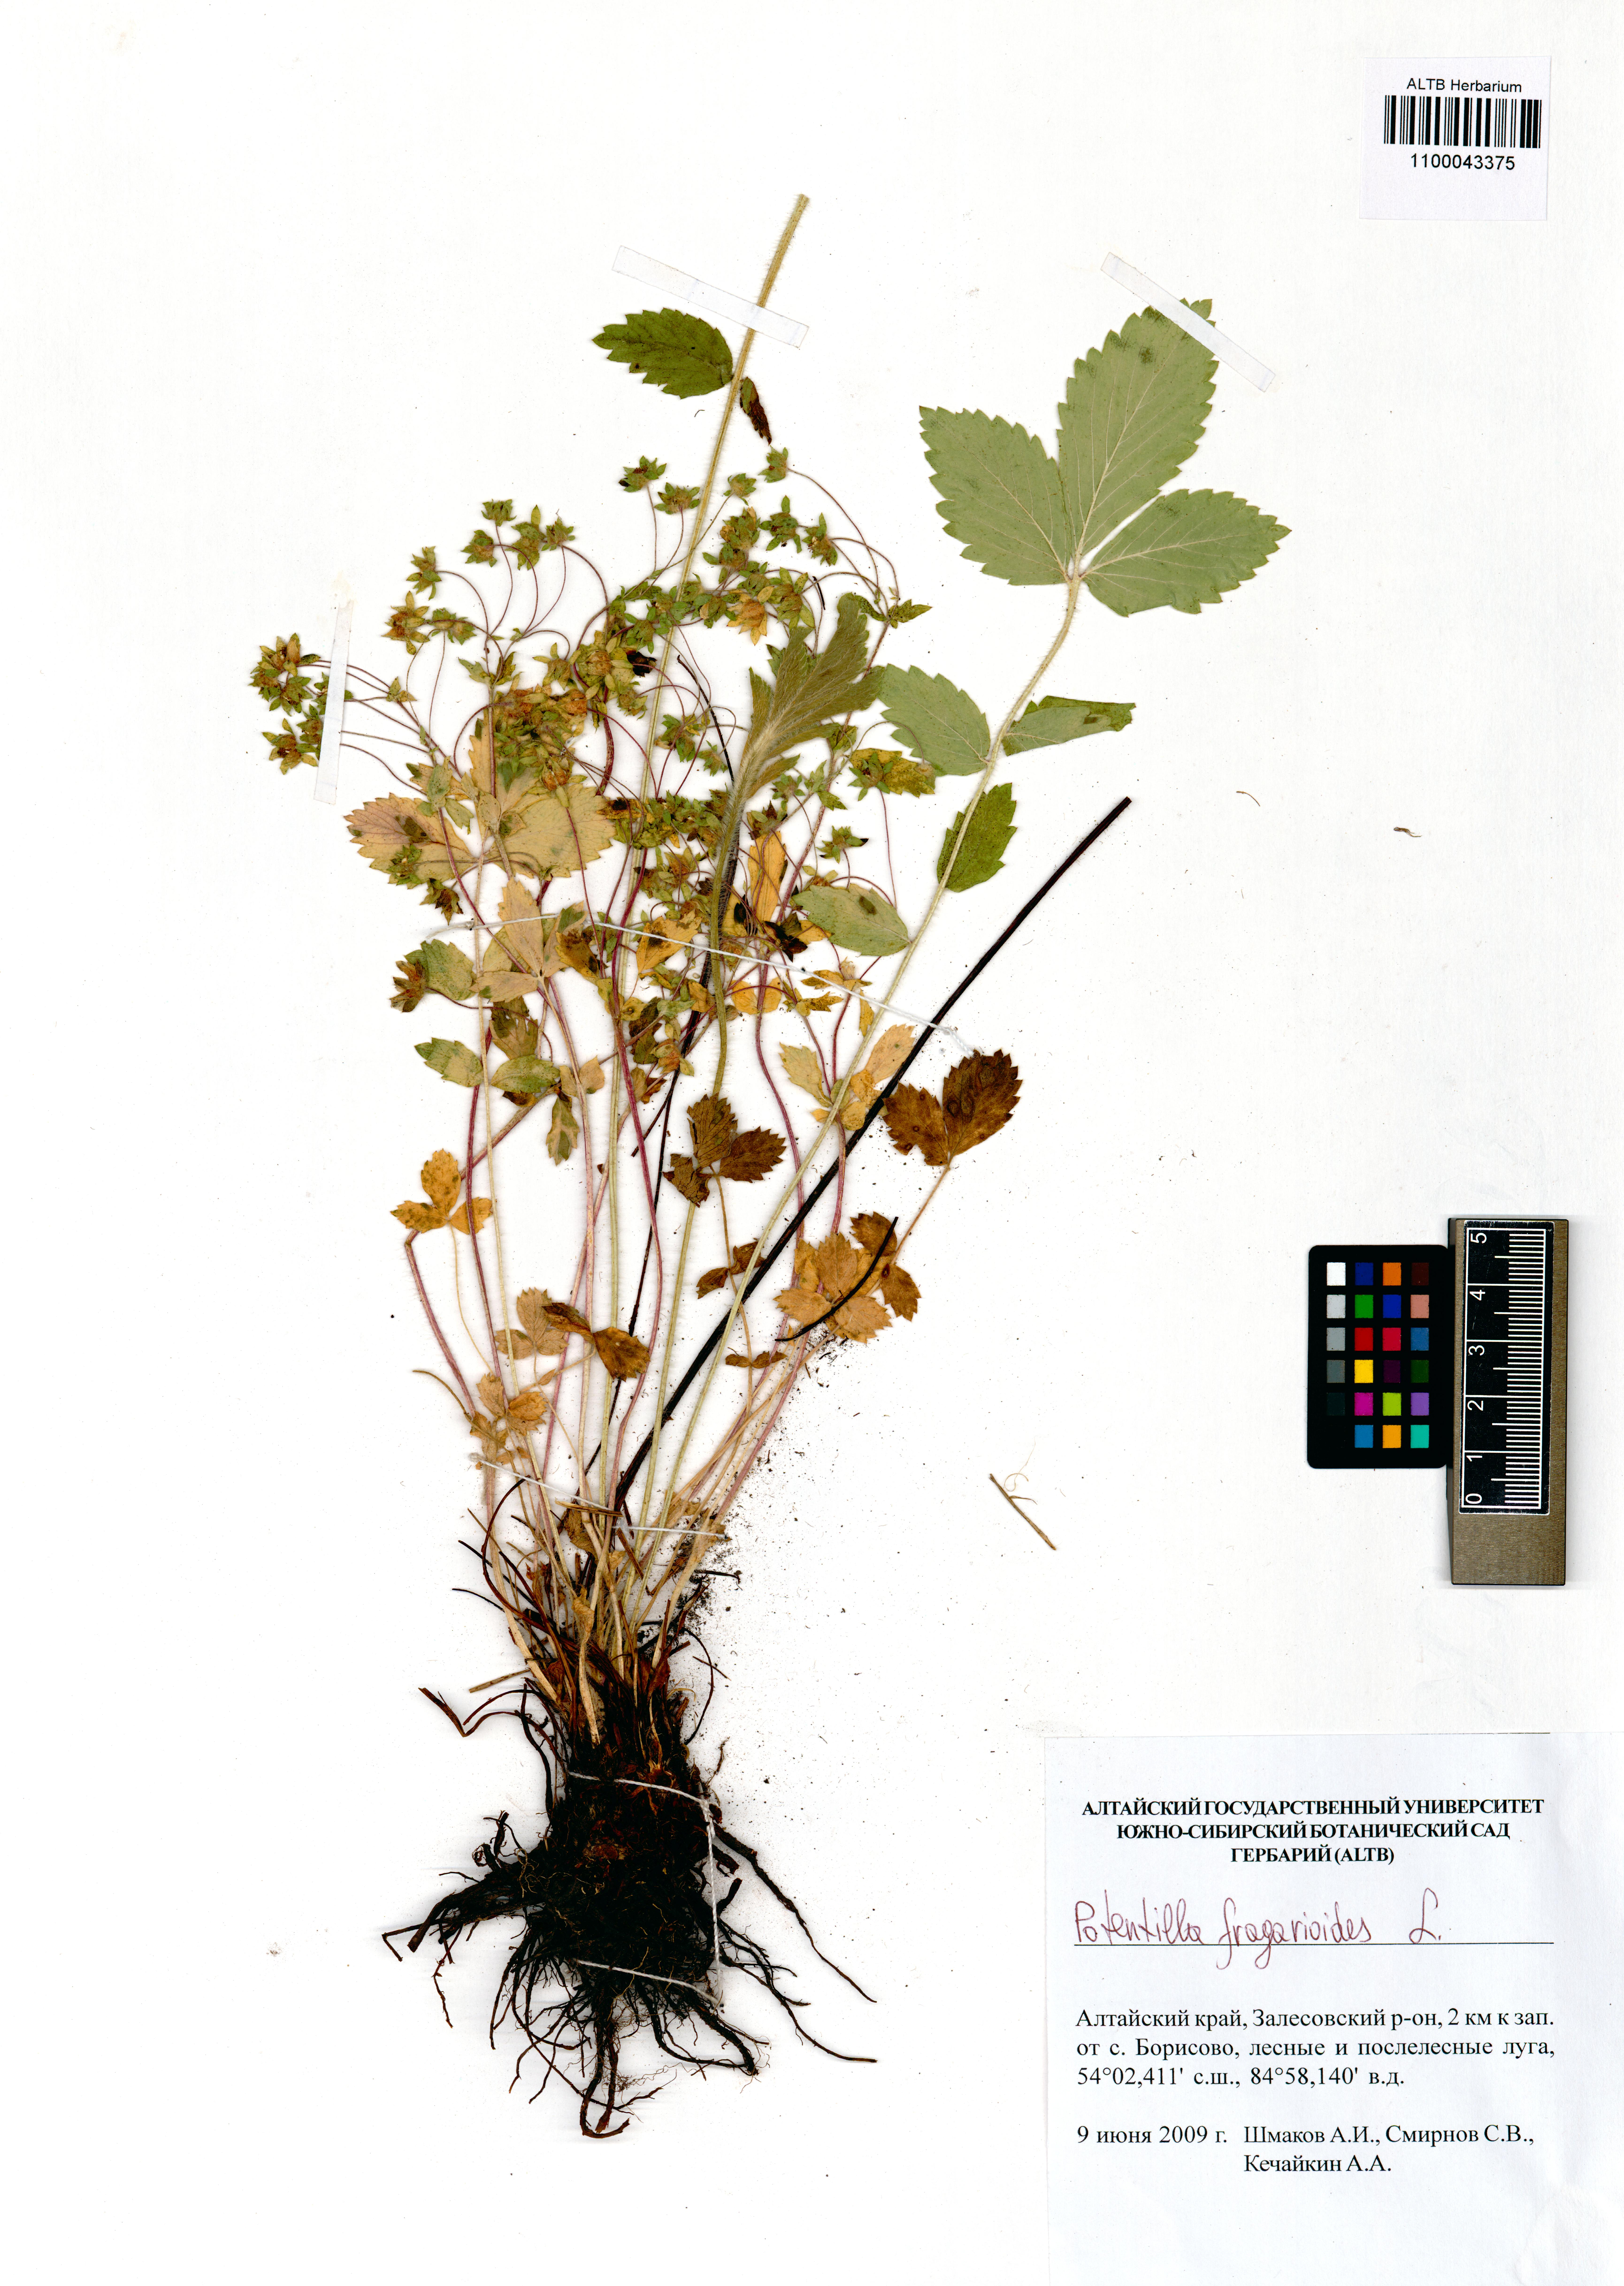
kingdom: Plantae
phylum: Tracheophyta
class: Magnoliopsida
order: Rosales
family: Rosaceae
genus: Potentilla
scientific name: Potentilla fragarioides
